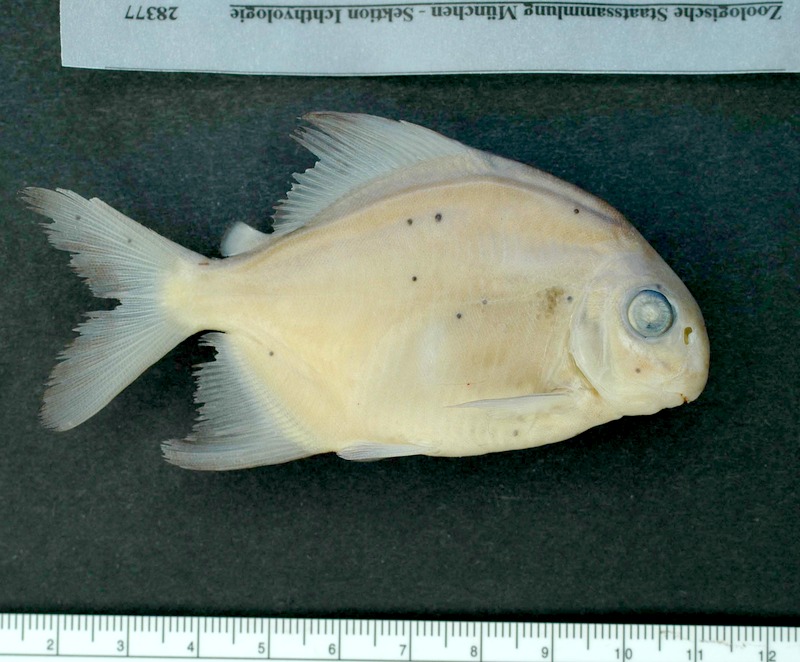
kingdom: Animalia
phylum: Chordata
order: Characiformes
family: Serrasalmidae
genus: Ossubtus
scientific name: Ossubtus xinguense
